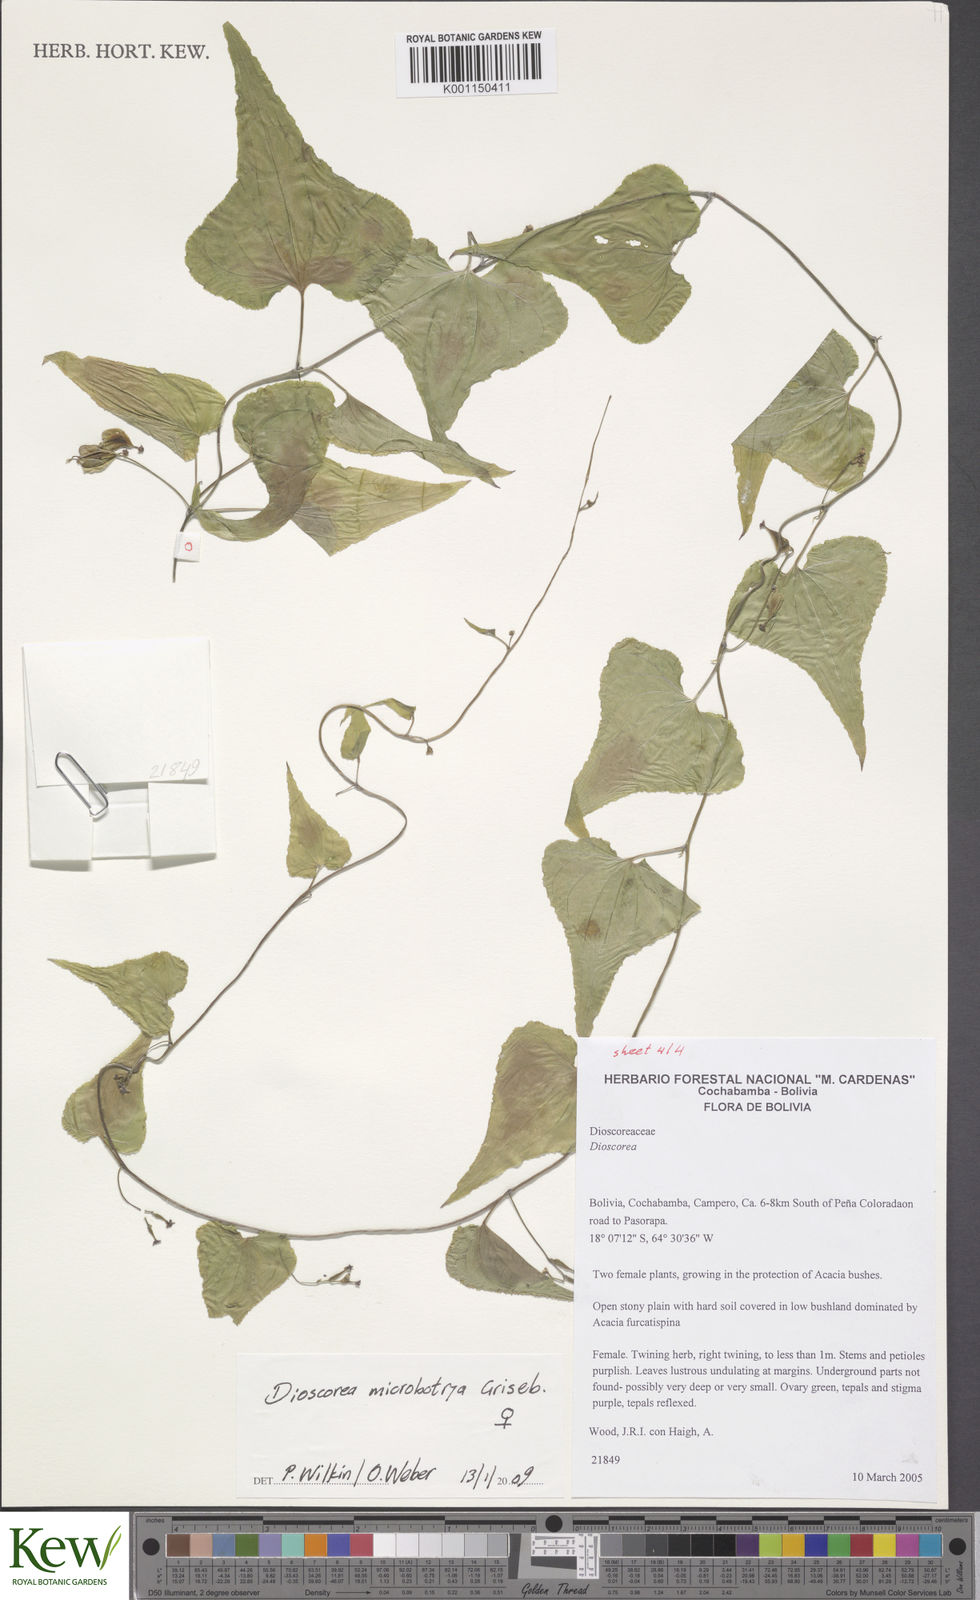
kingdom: Plantae
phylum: Tracheophyta
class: Liliopsida
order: Dioscoreales
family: Dioscoreaceae
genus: Dioscorea
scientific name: Dioscorea microbotrya
